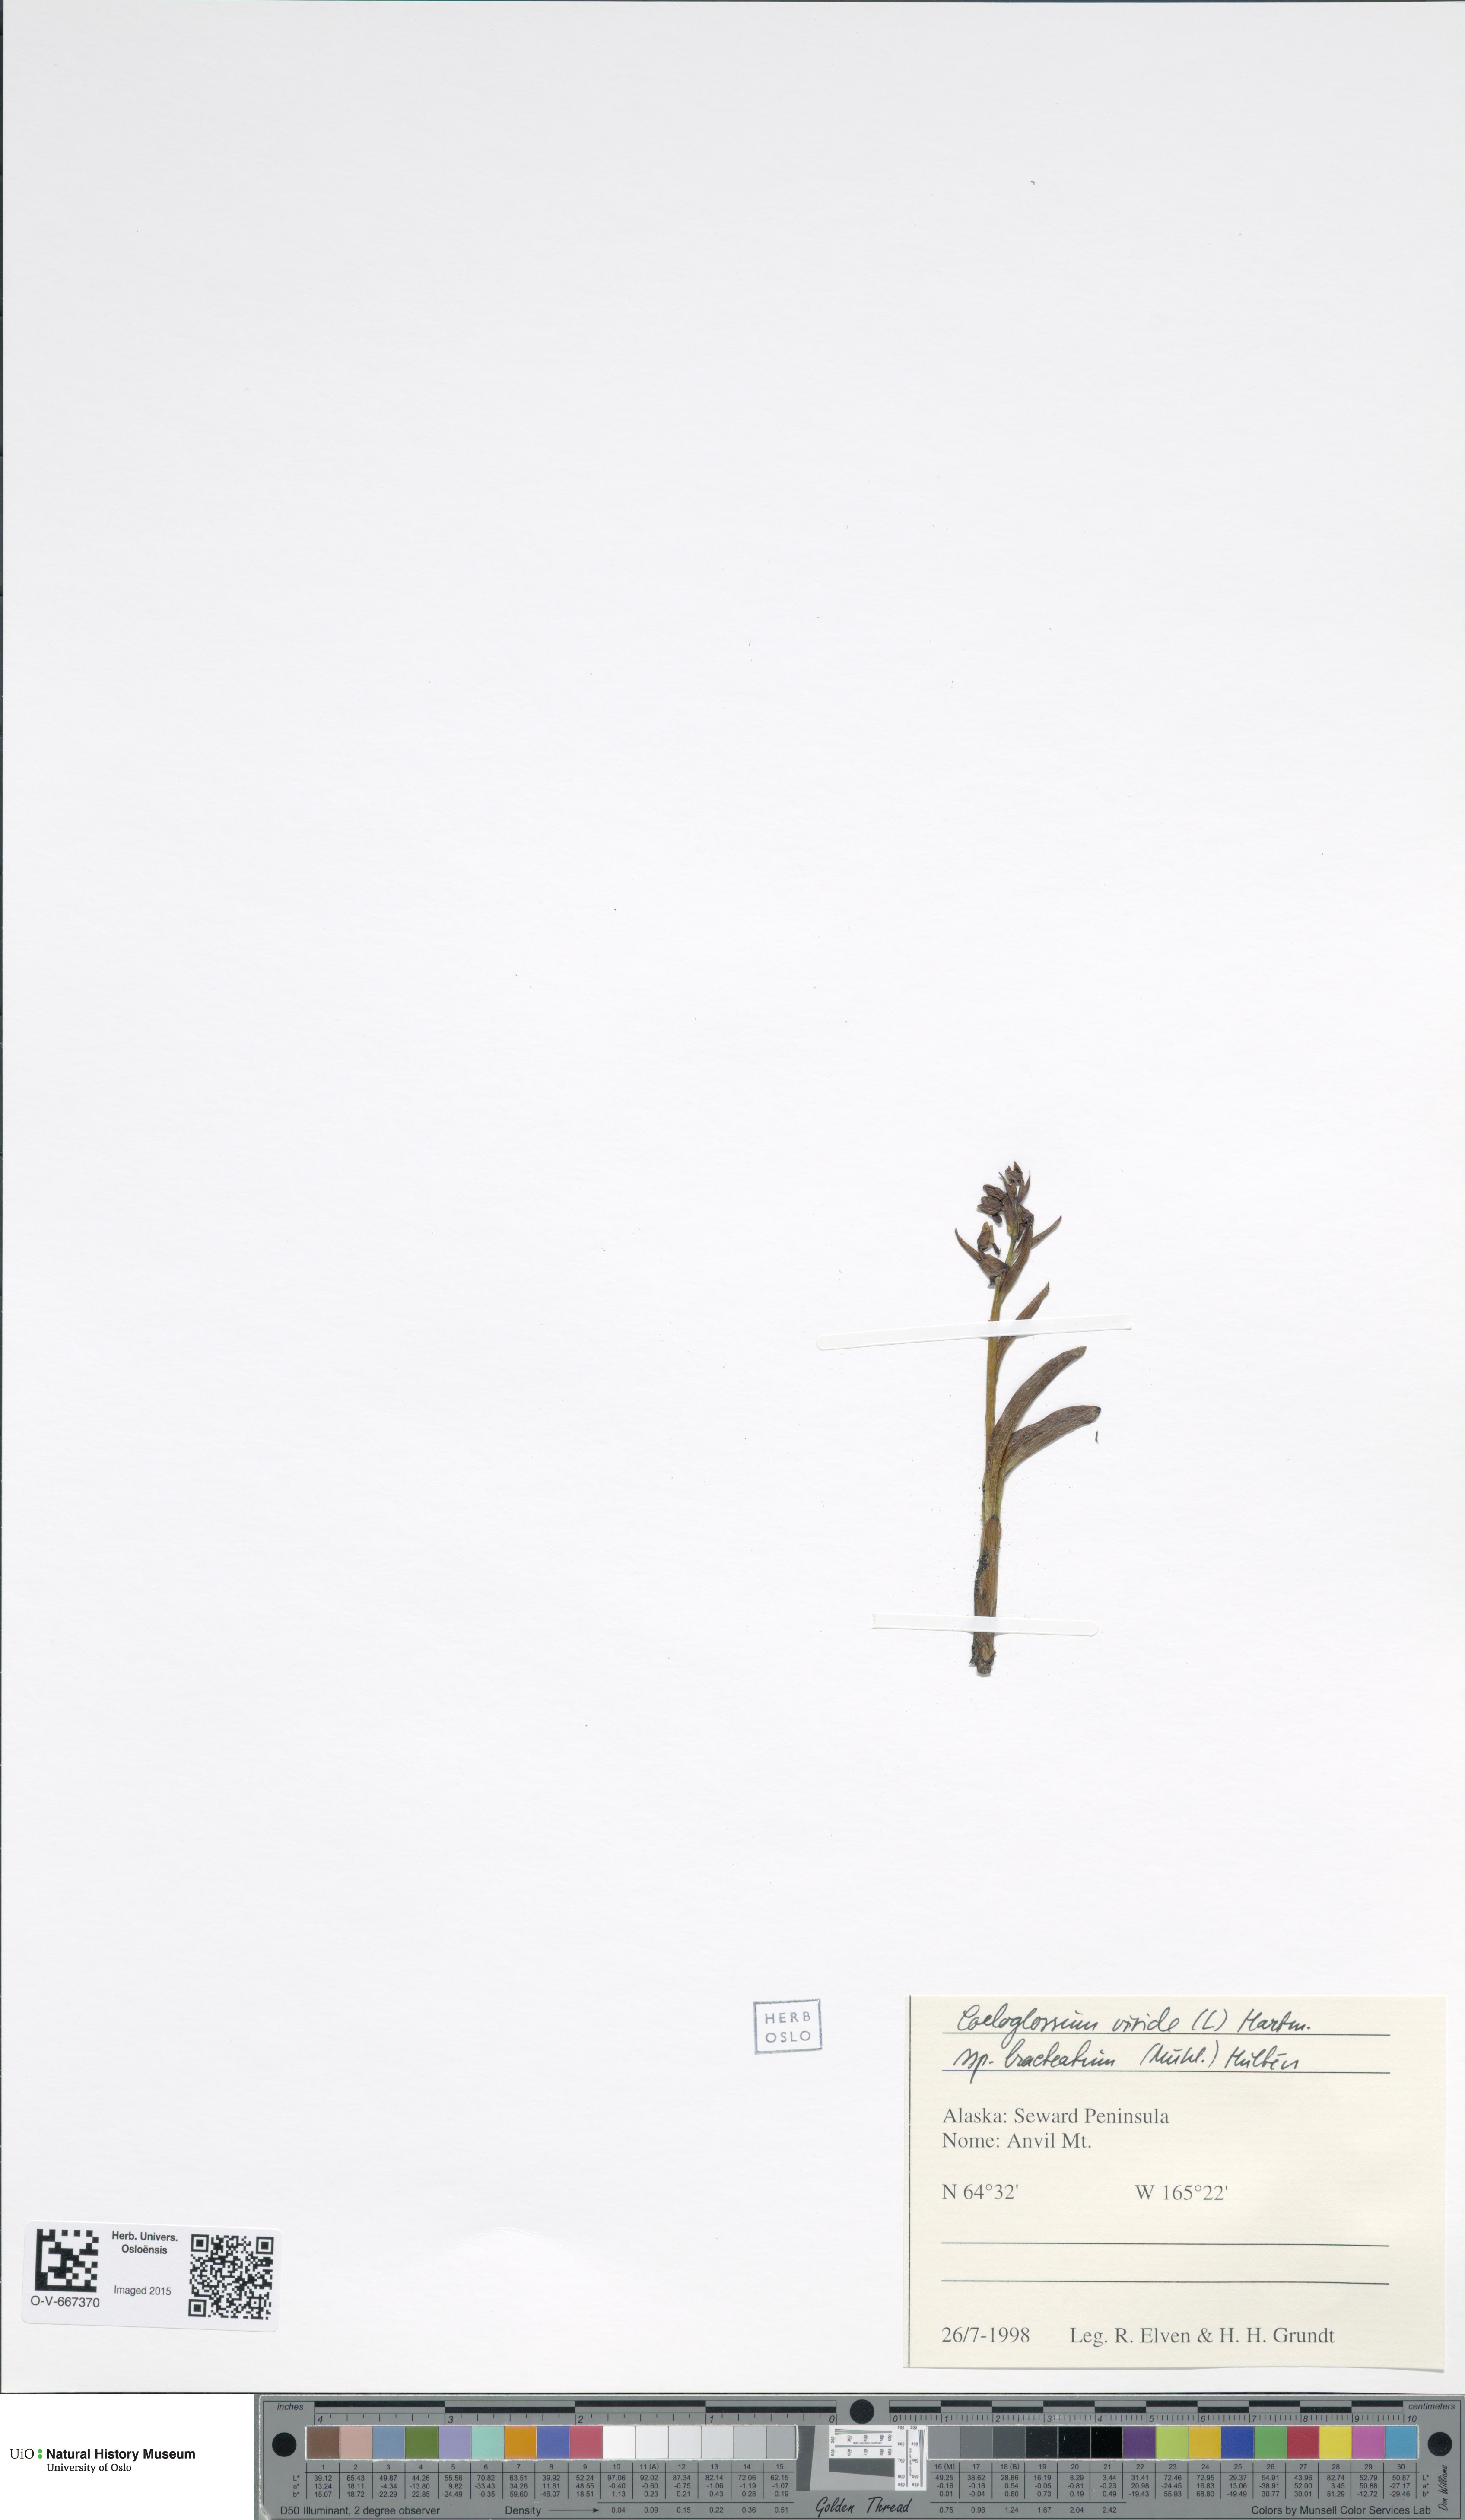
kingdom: Plantae
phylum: Tracheophyta
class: Liliopsida
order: Asparagales
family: Orchidaceae
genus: Dactylorhiza
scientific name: Dactylorhiza viridis
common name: Longbract frog orchid
